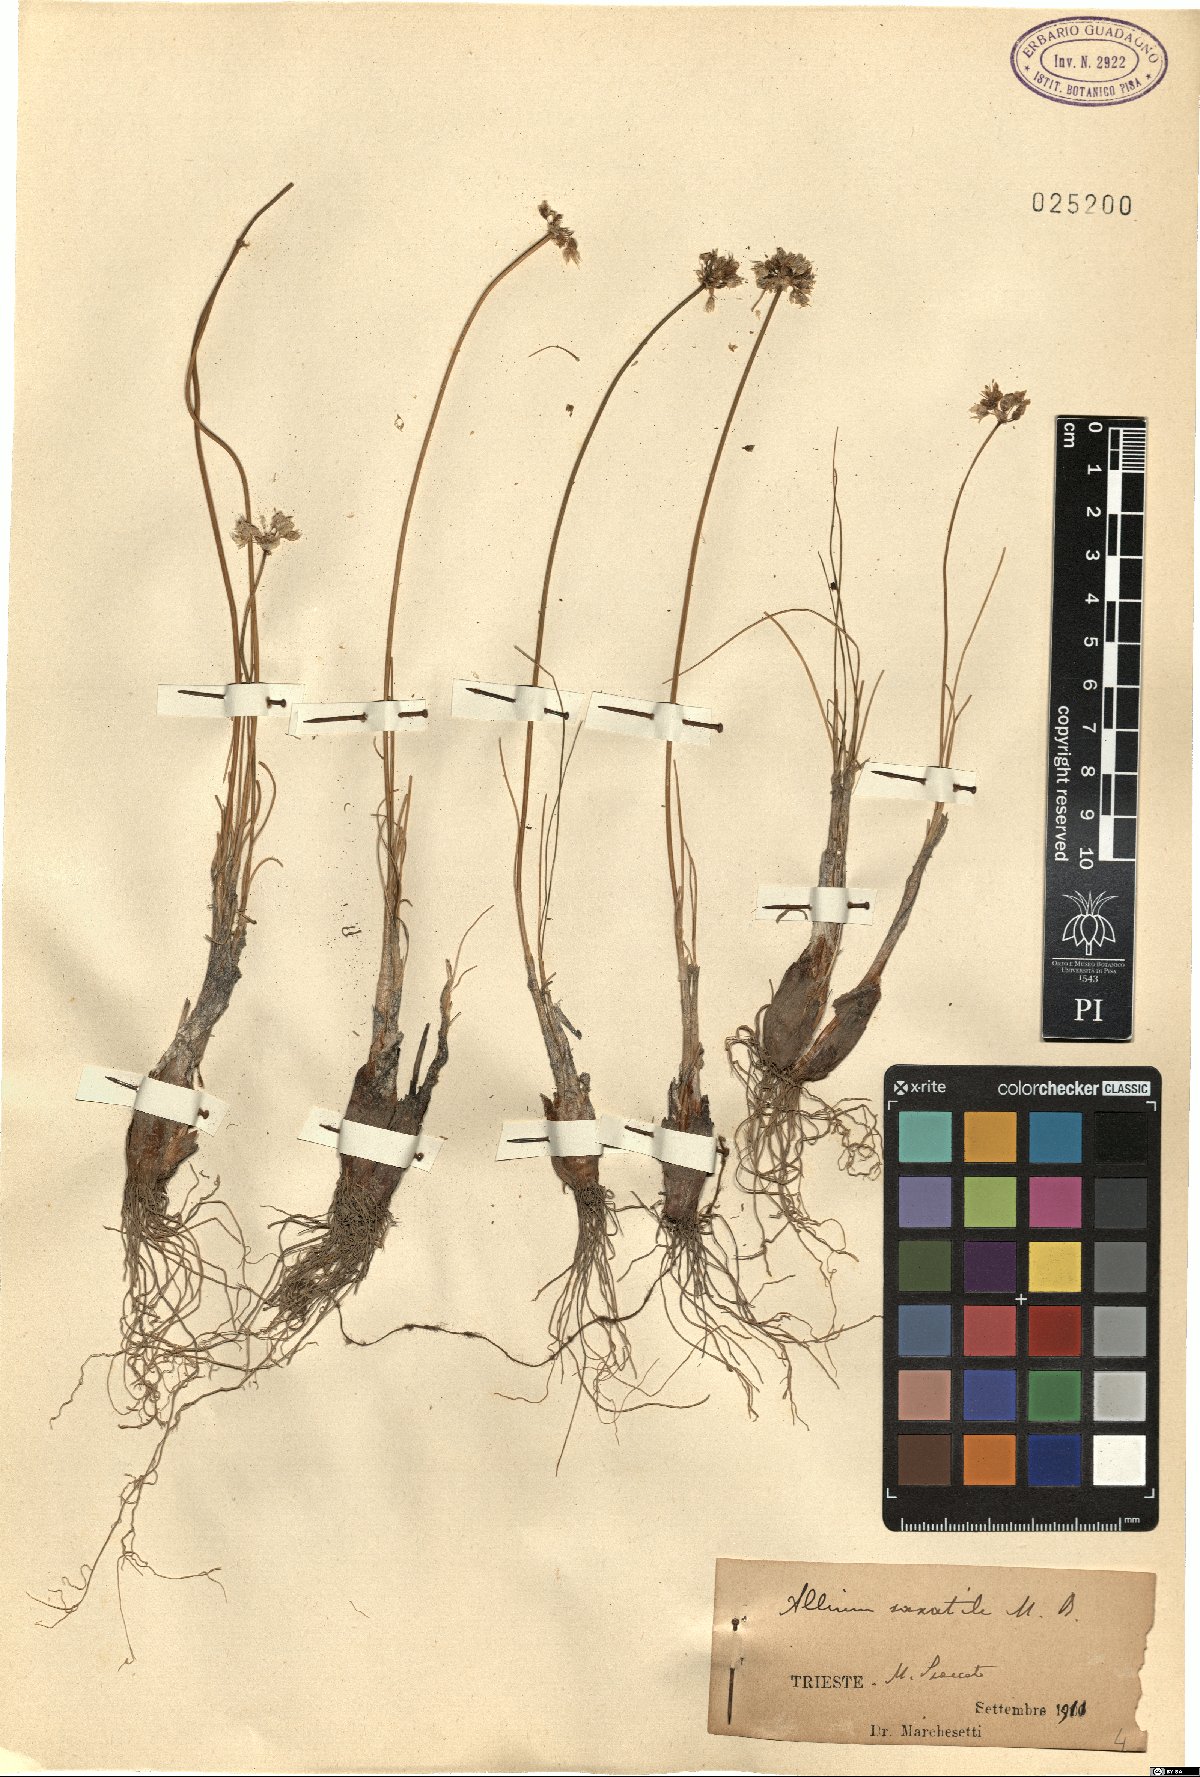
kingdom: Plantae
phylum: Tracheophyta
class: Liliopsida
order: Asparagales
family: Amaryllidaceae
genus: Allium
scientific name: Allium saxatile
